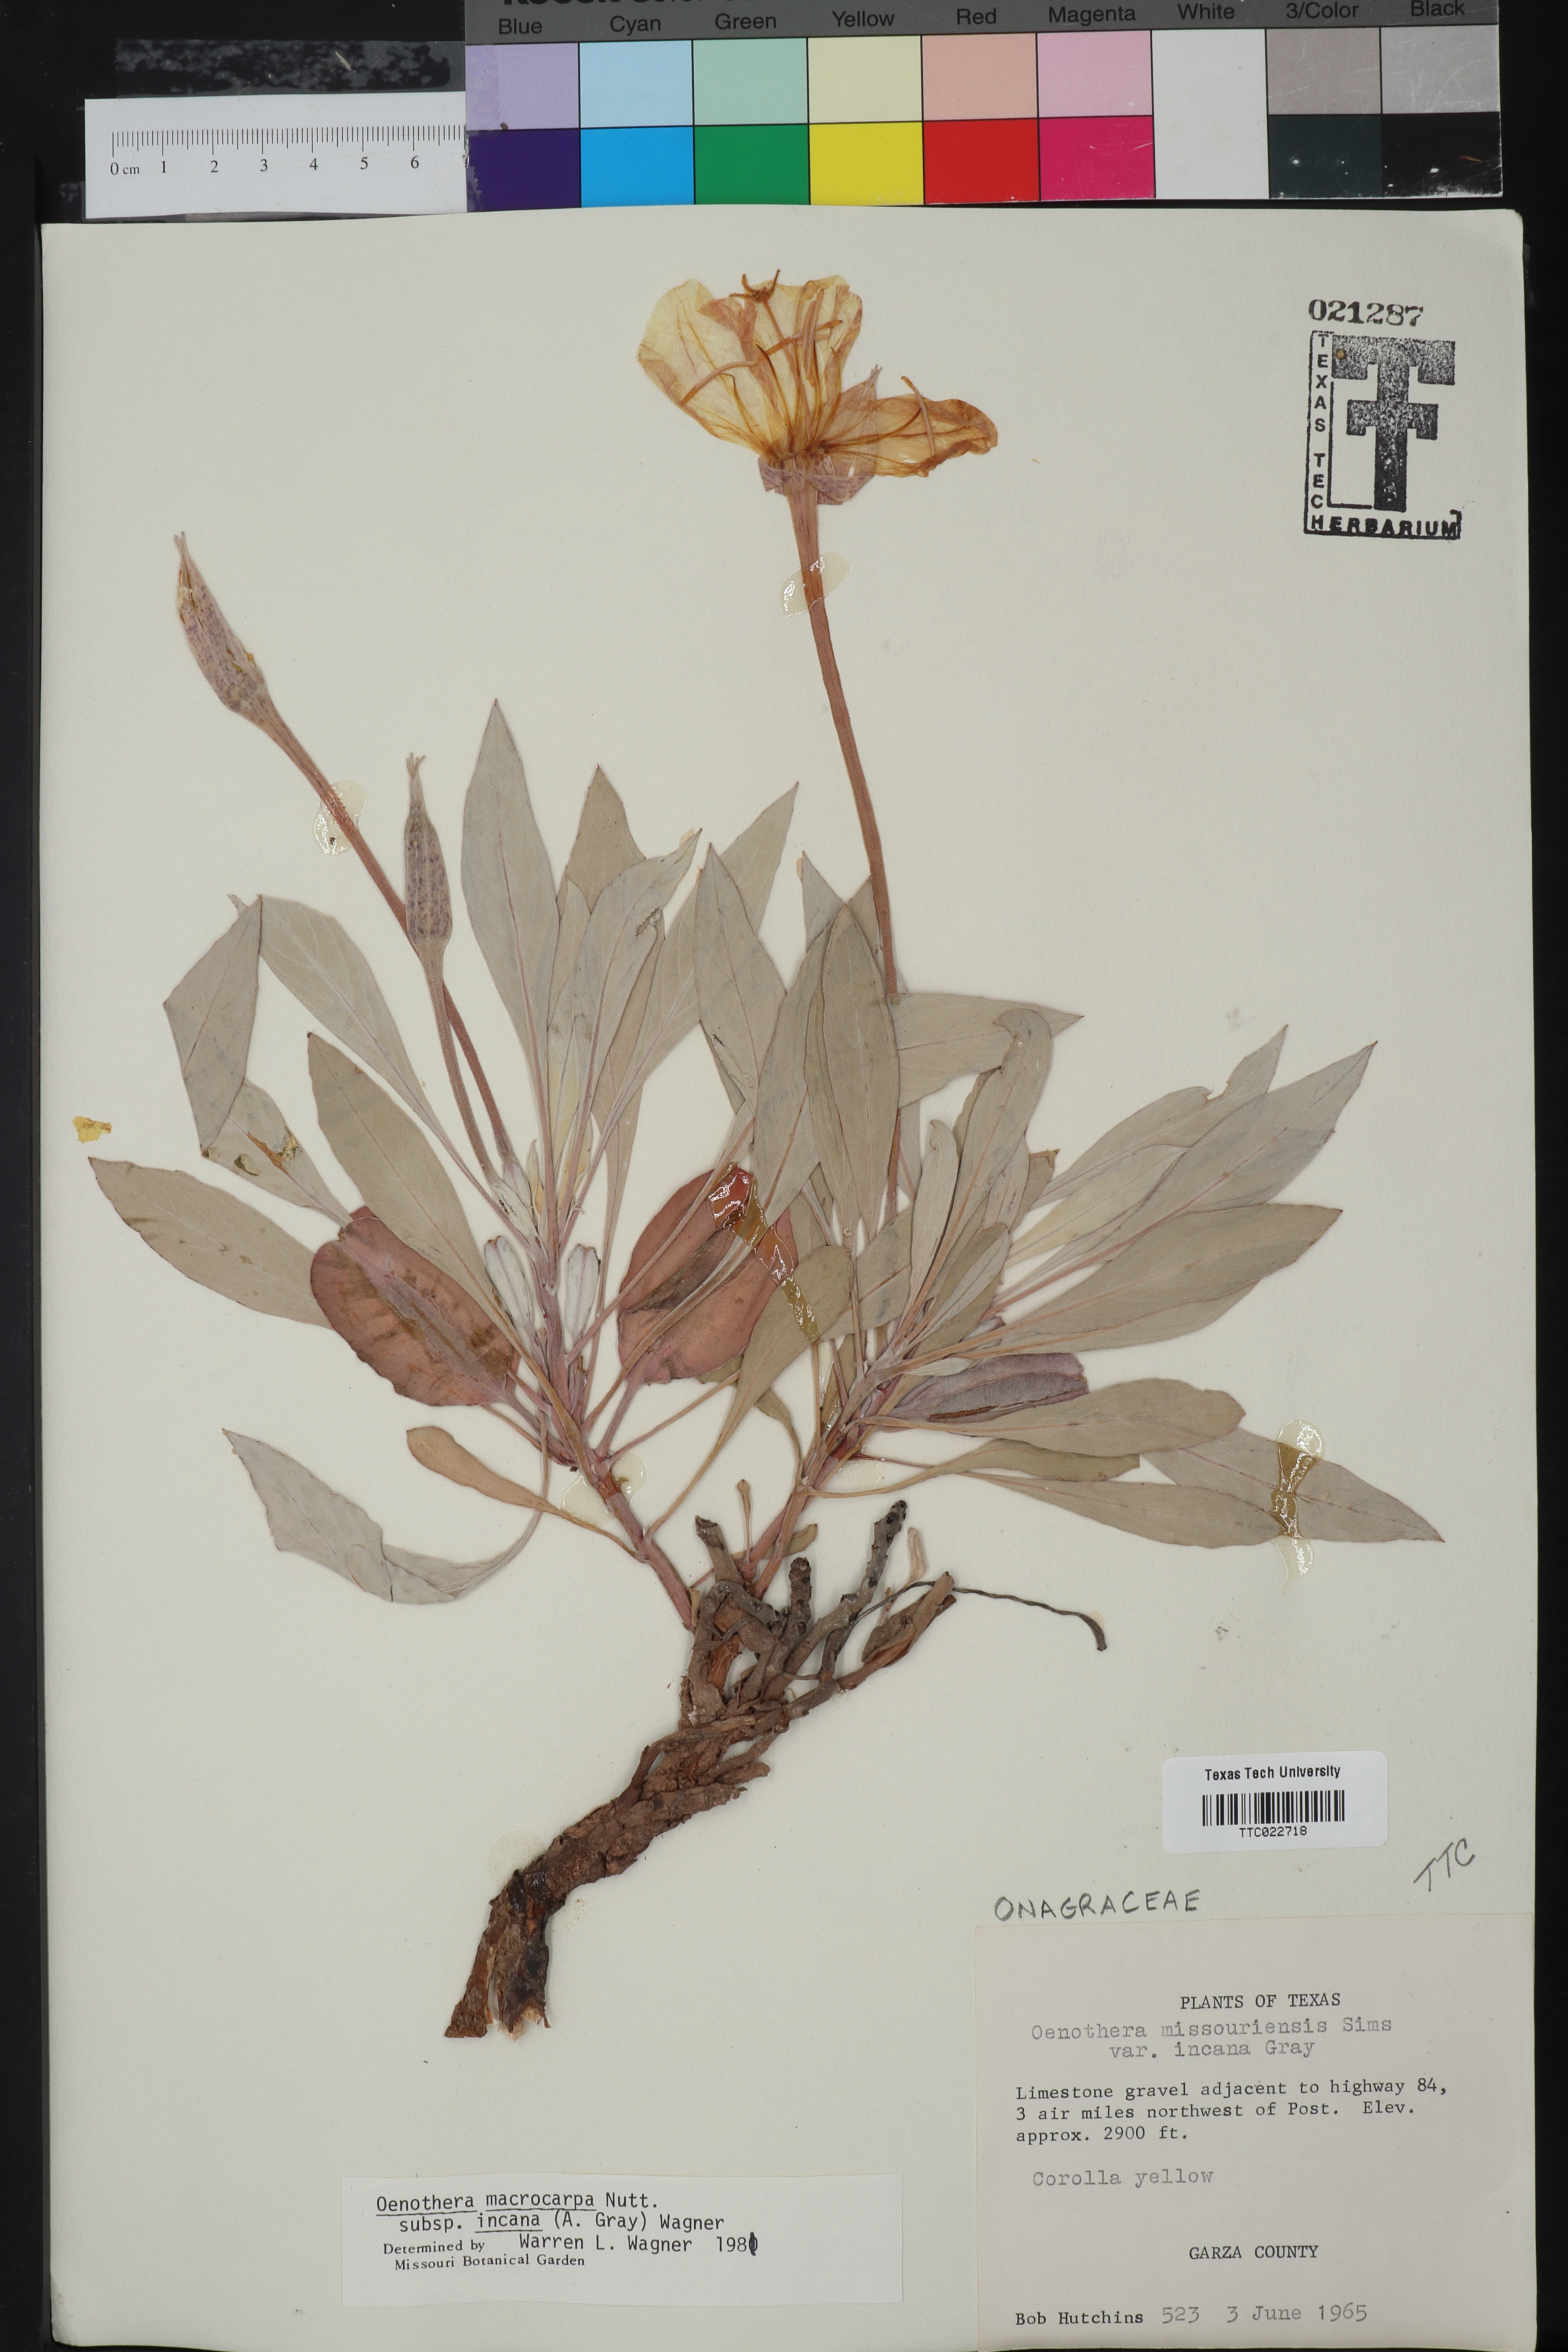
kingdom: Plantae
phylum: Tracheophyta
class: Magnoliopsida
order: Myrtales
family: Onagraceae
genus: Oenothera
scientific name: Oenothera macrocarpa
